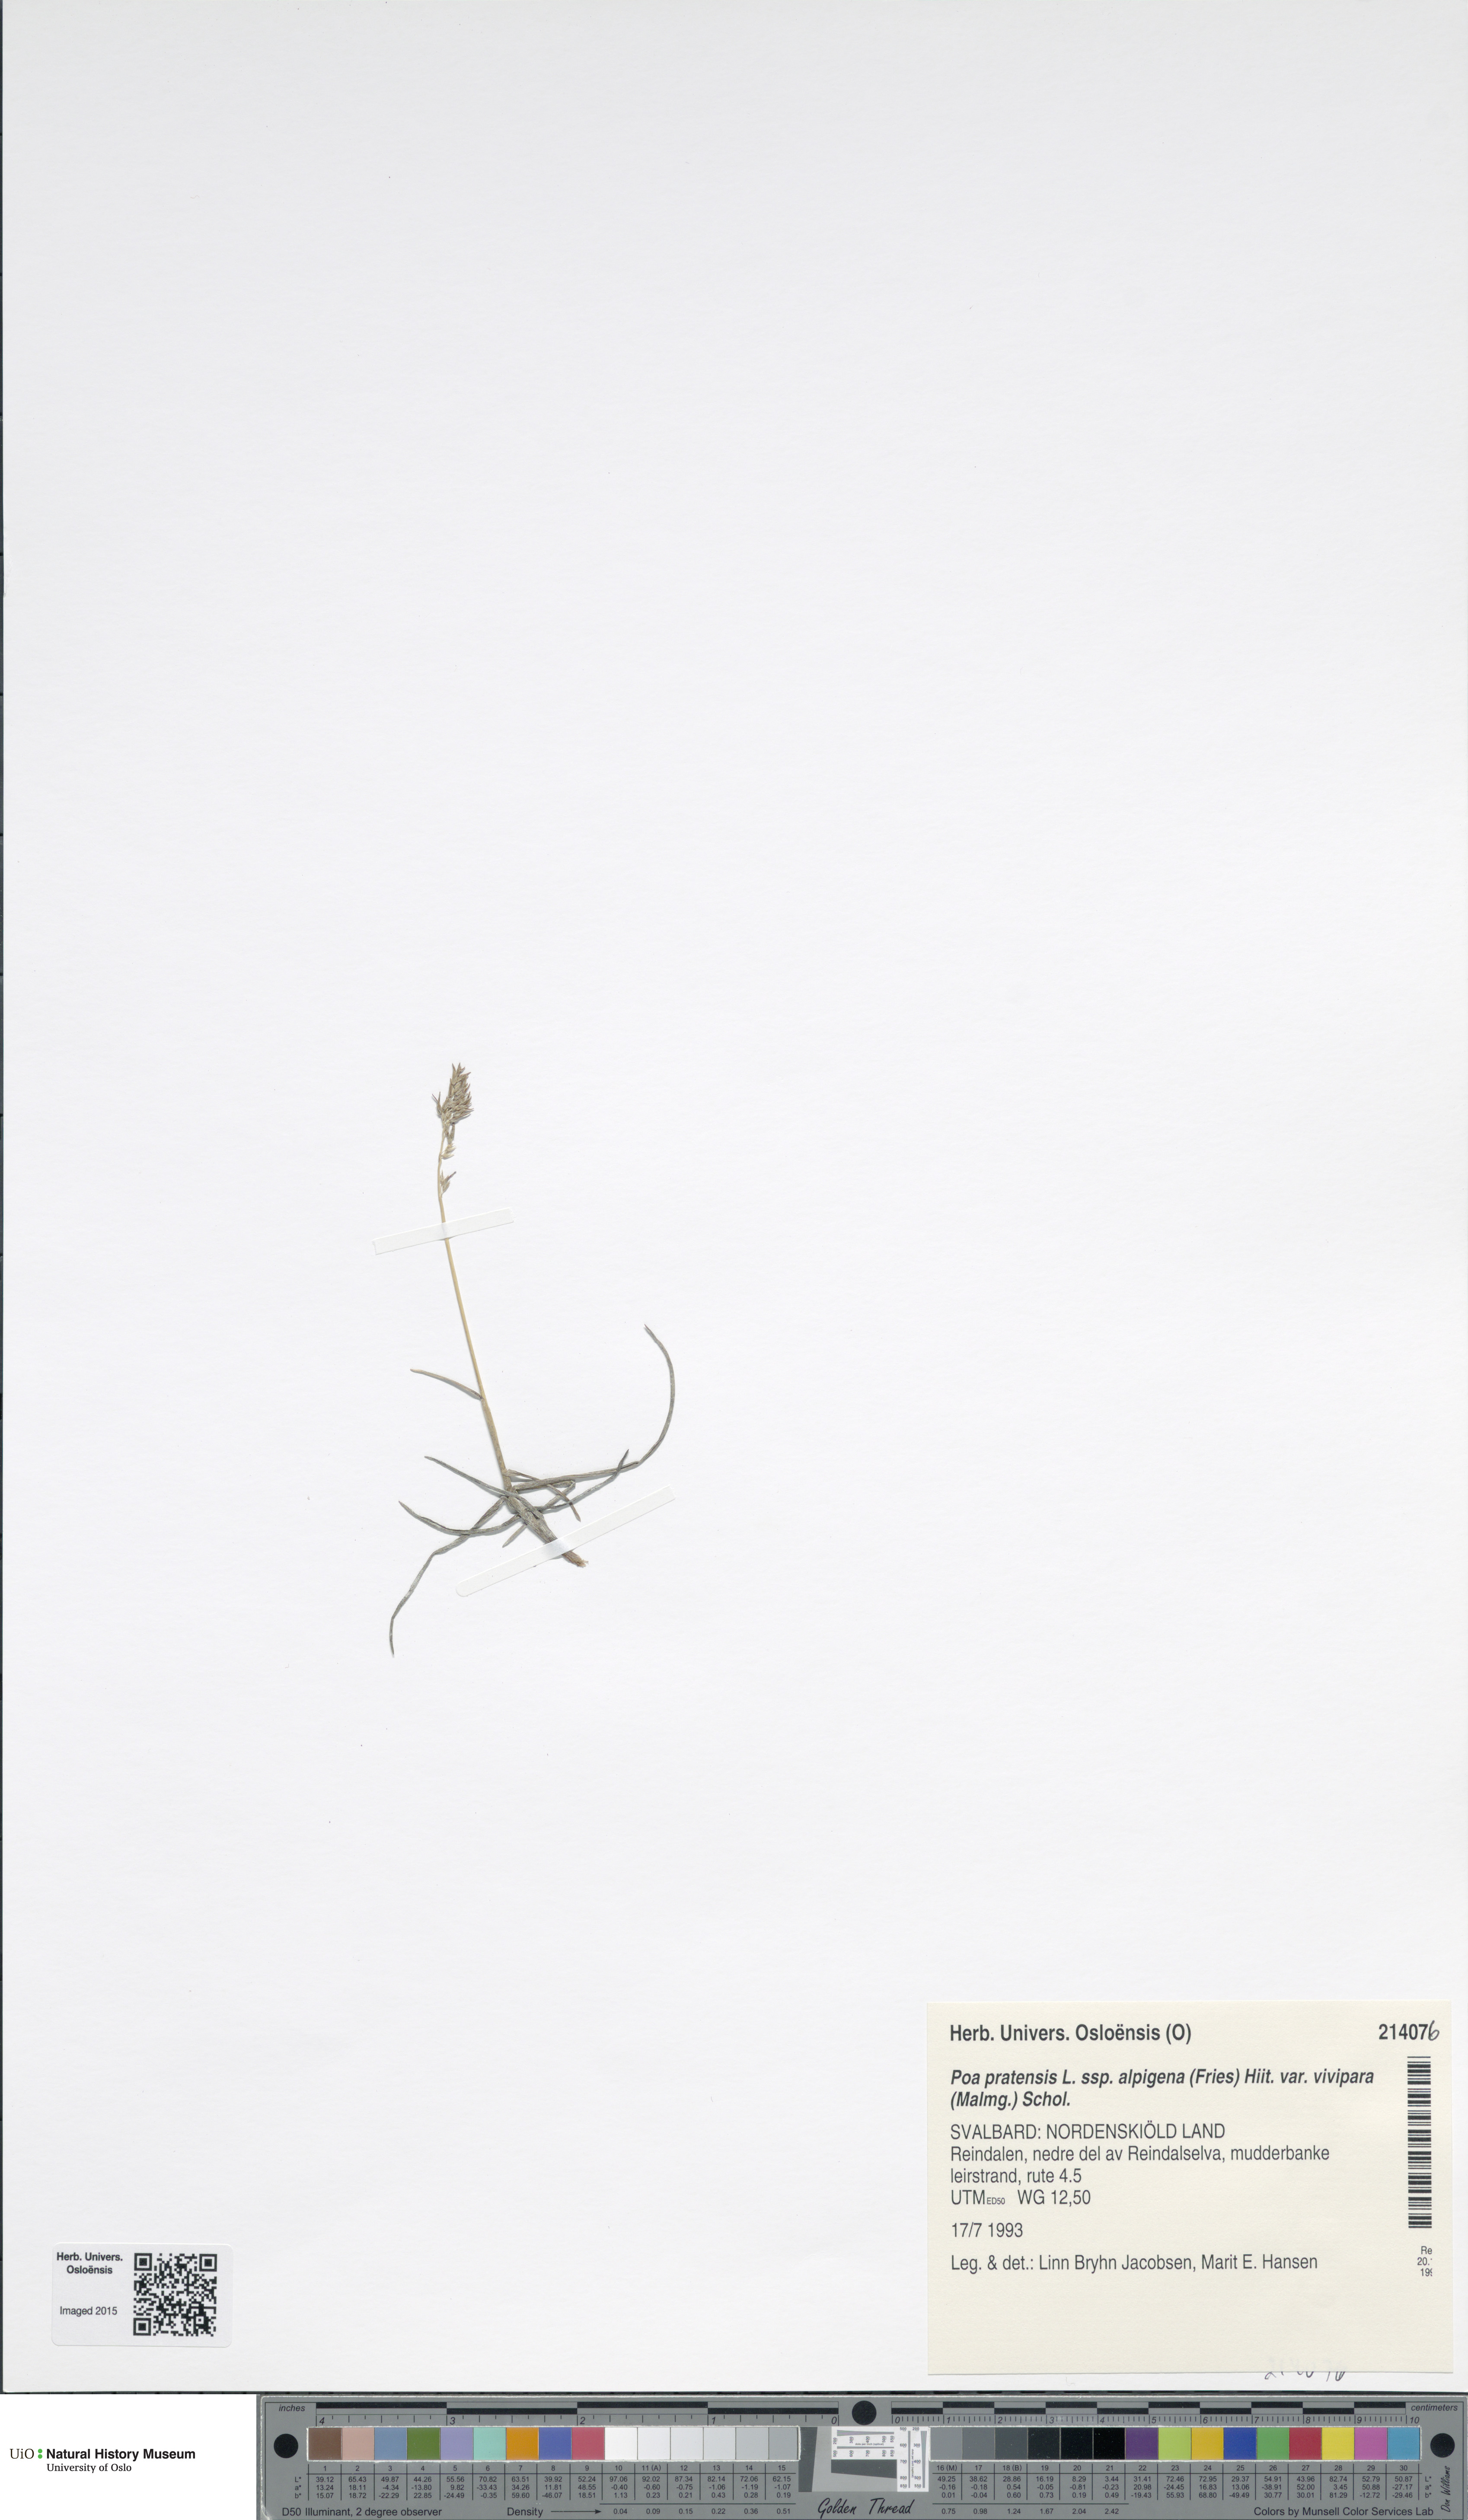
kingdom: Plantae
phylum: Tracheophyta
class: Liliopsida
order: Poales
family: Poaceae
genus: Poa
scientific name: Poa arctica
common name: Arctic bluegrass
